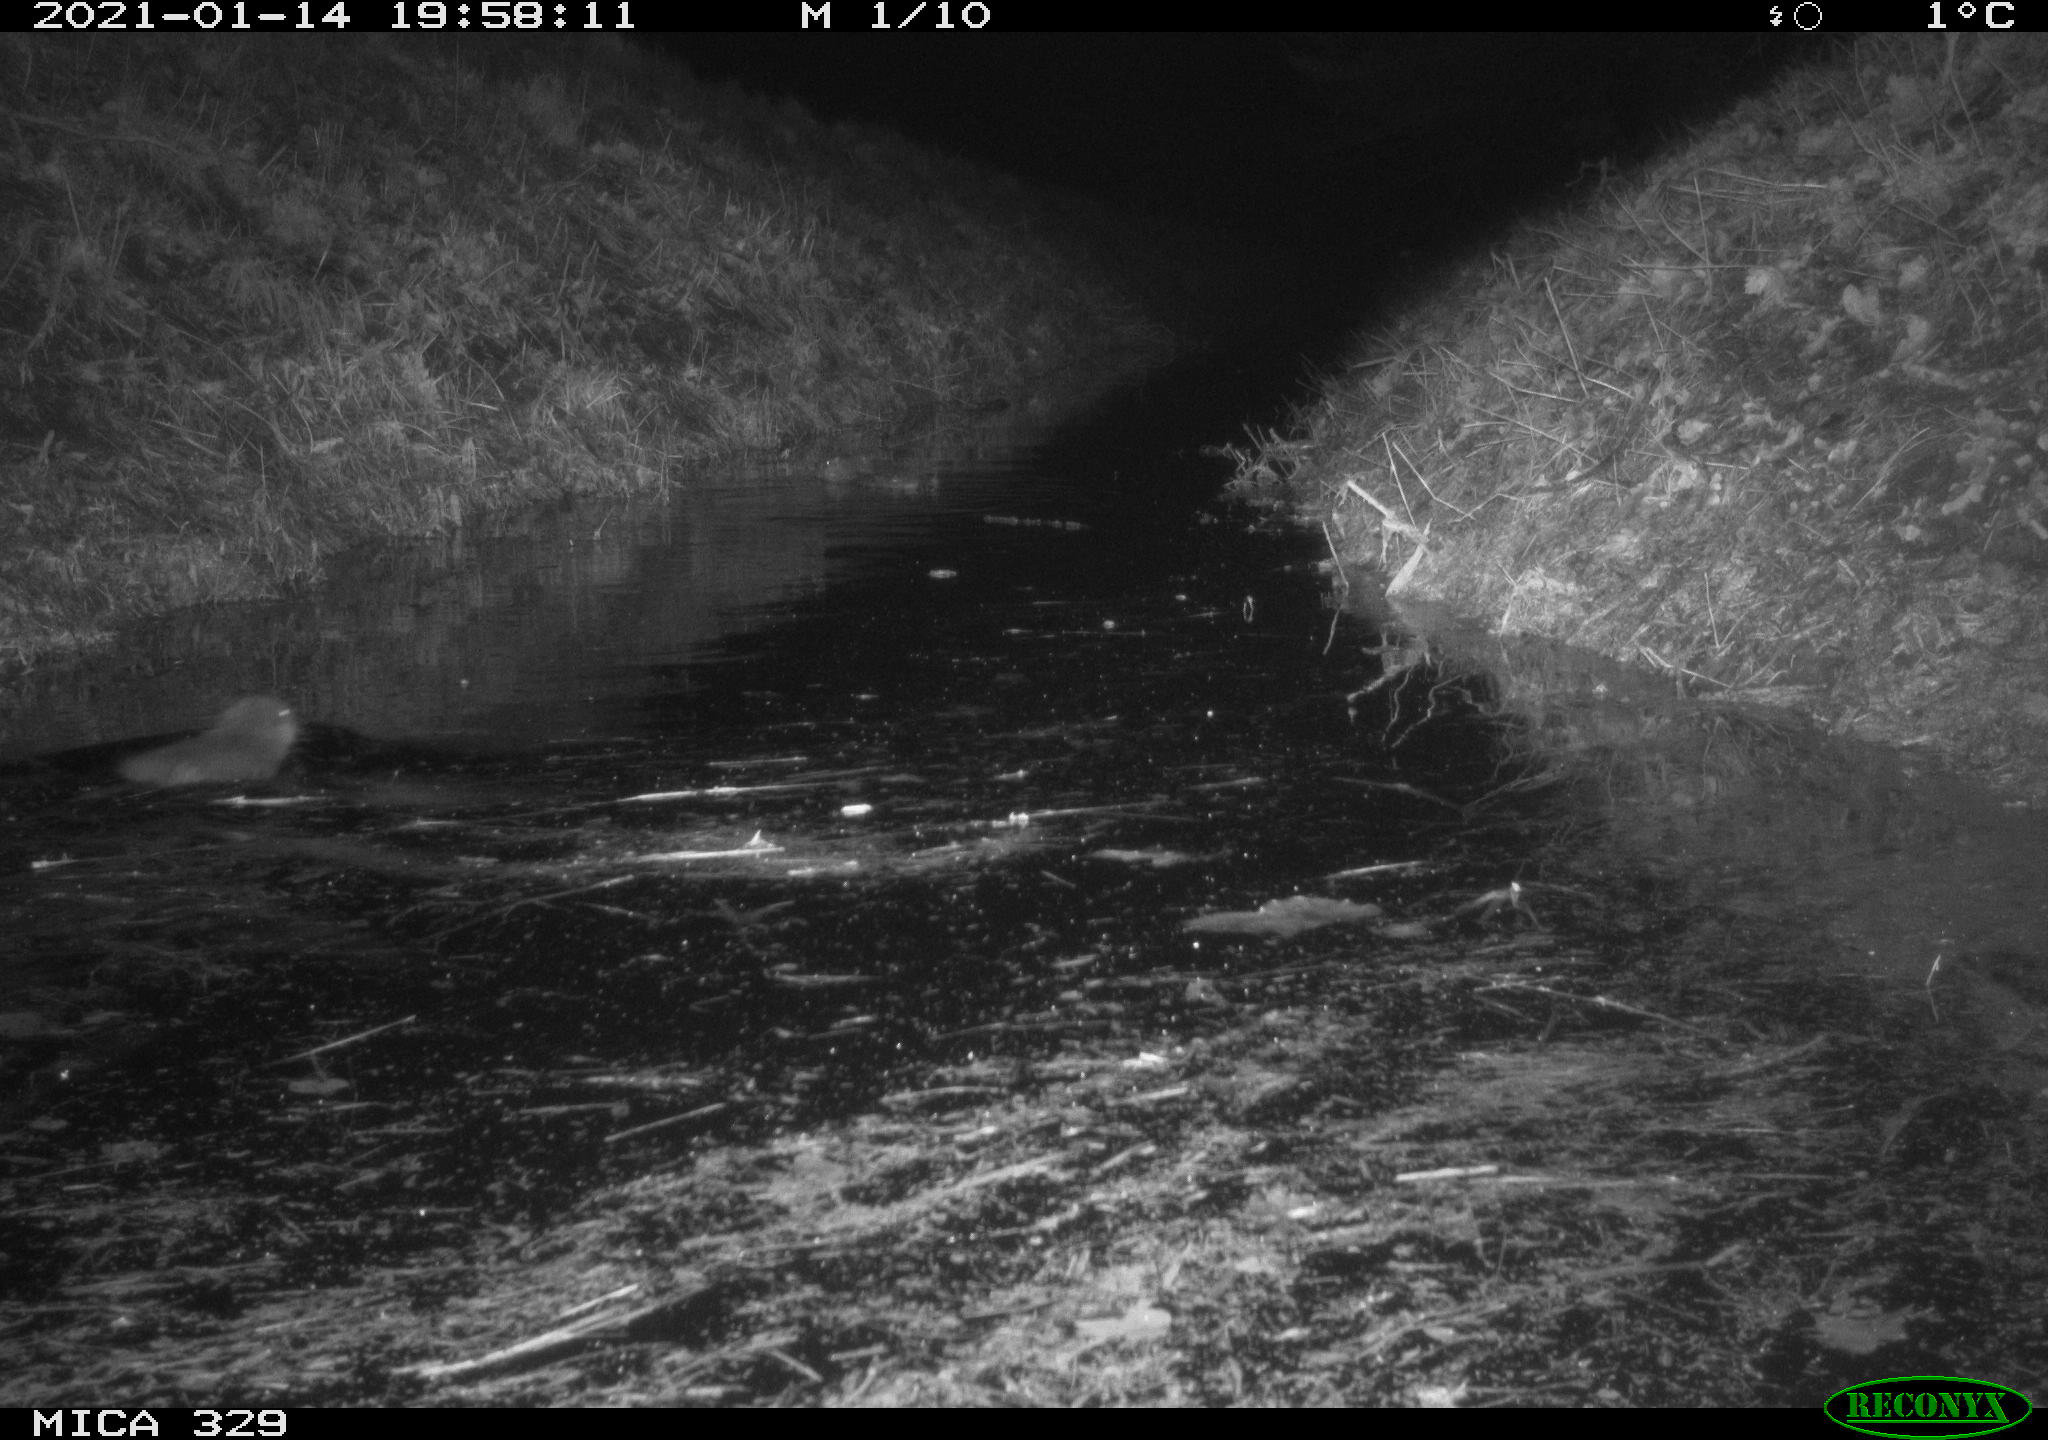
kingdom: Animalia
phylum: Chordata
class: Mammalia
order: Rodentia
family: Myocastoridae
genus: Myocastor
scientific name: Myocastor coypus
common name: Coypu
